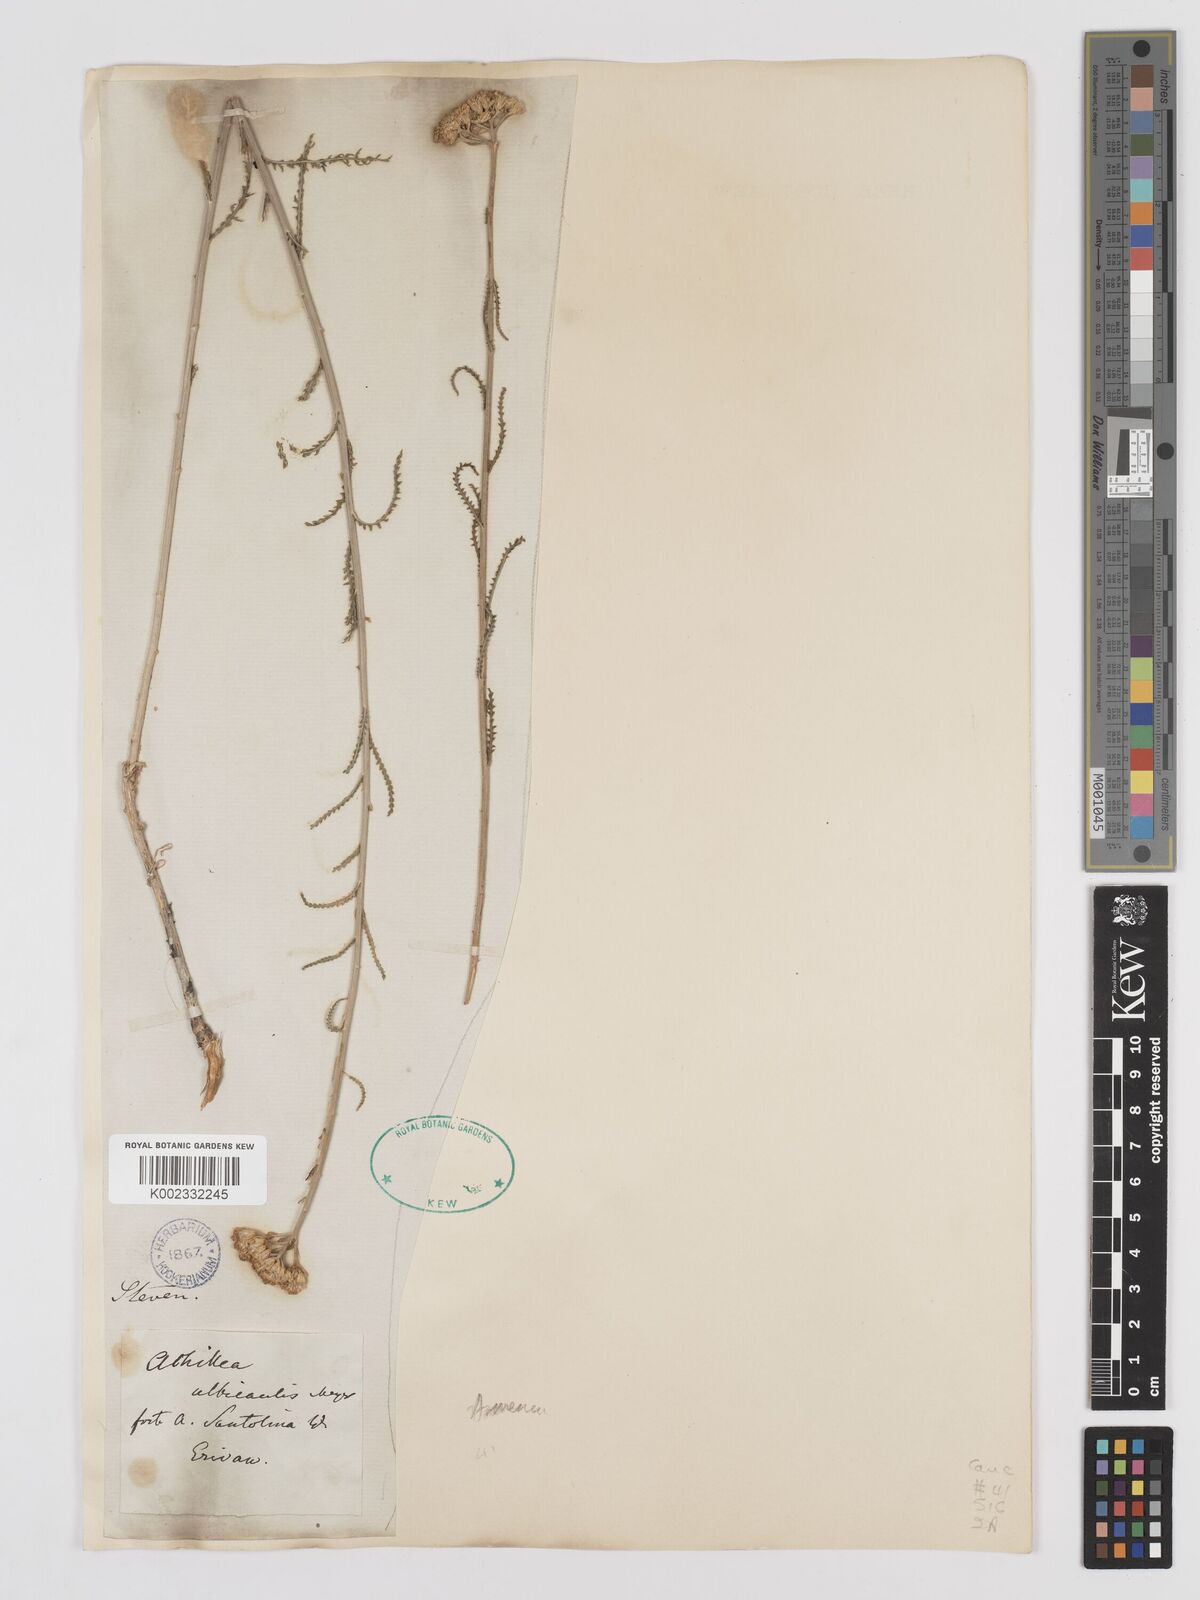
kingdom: Plantae
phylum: Tracheophyta
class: Magnoliopsida
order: Asterales
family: Asteraceae
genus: Achillea
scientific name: Achillea tenuifolia
